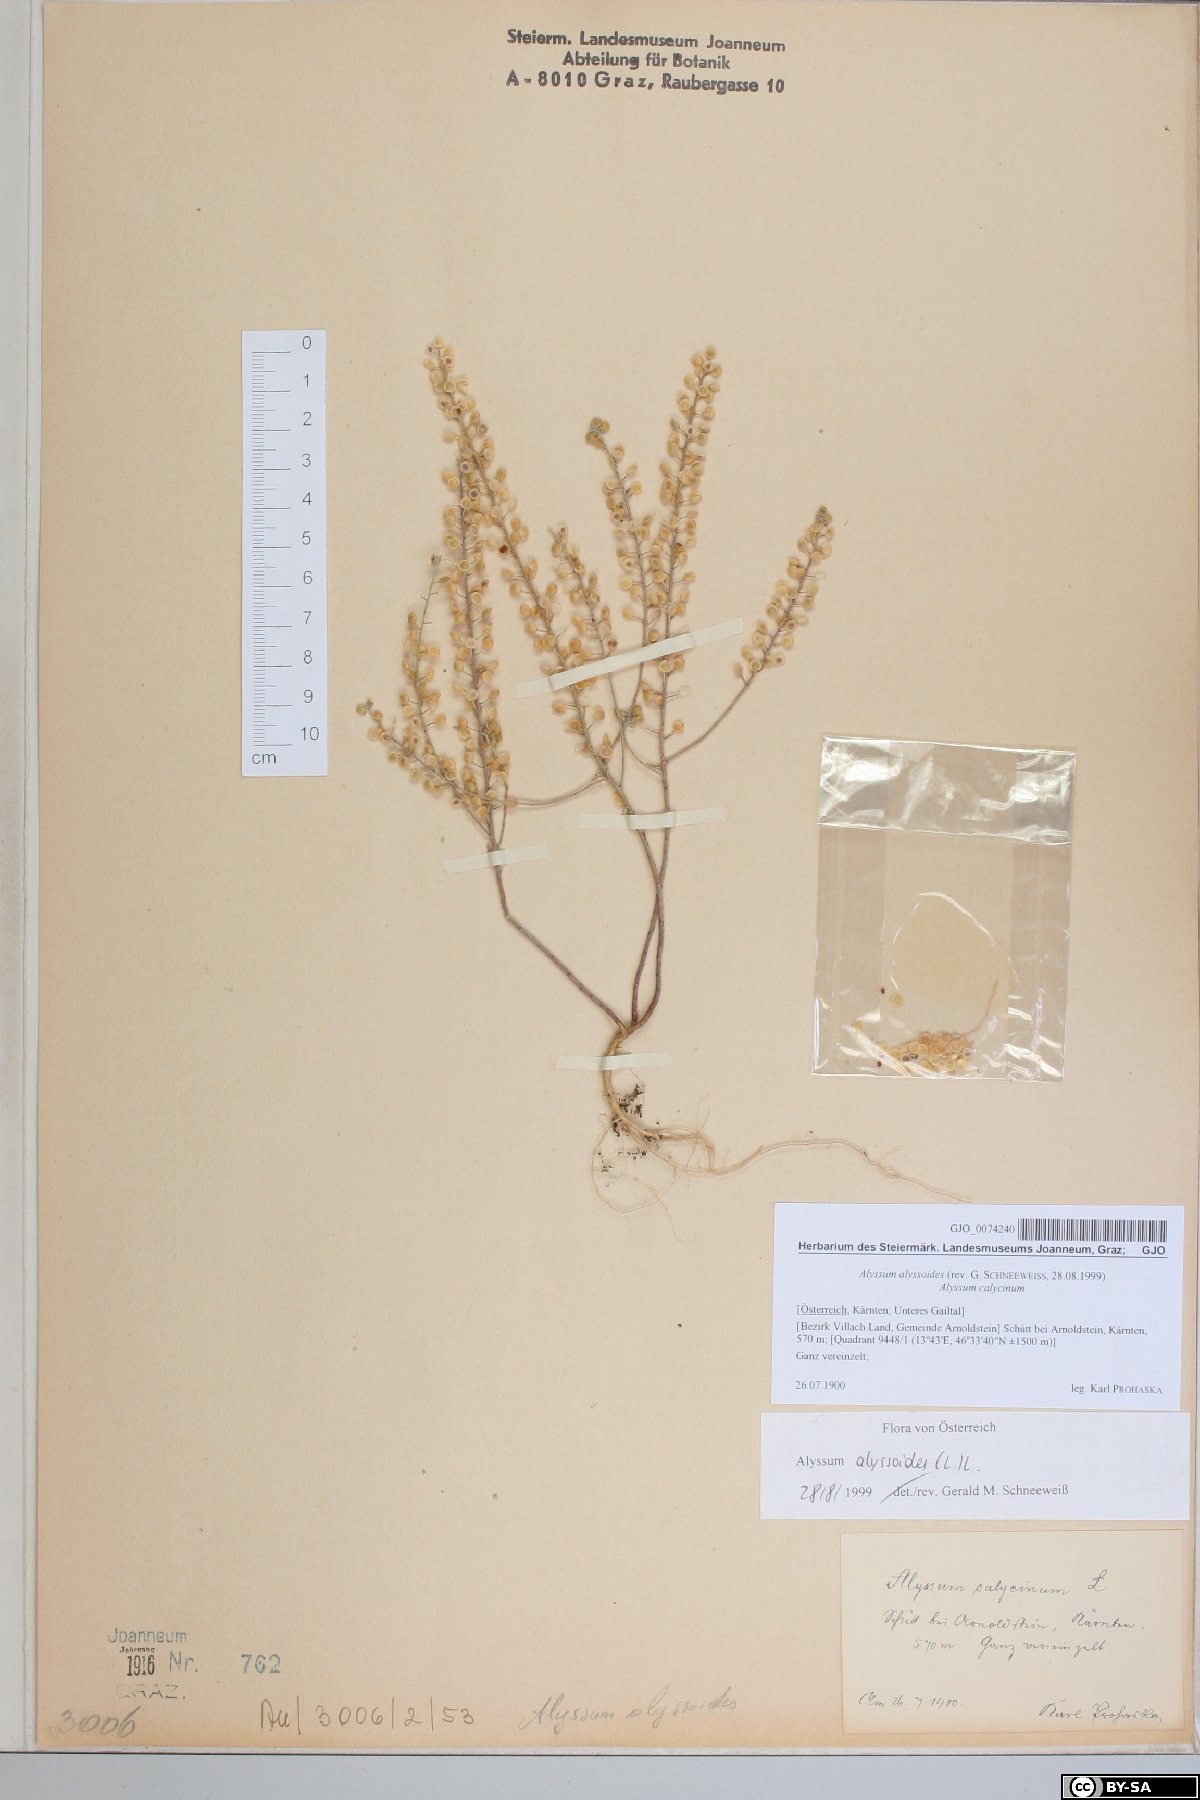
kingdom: Plantae
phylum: Tracheophyta
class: Magnoliopsida
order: Brassicales
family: Brassicaceae
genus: Alyssum
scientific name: Alyssum alyssoides
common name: Small alison
